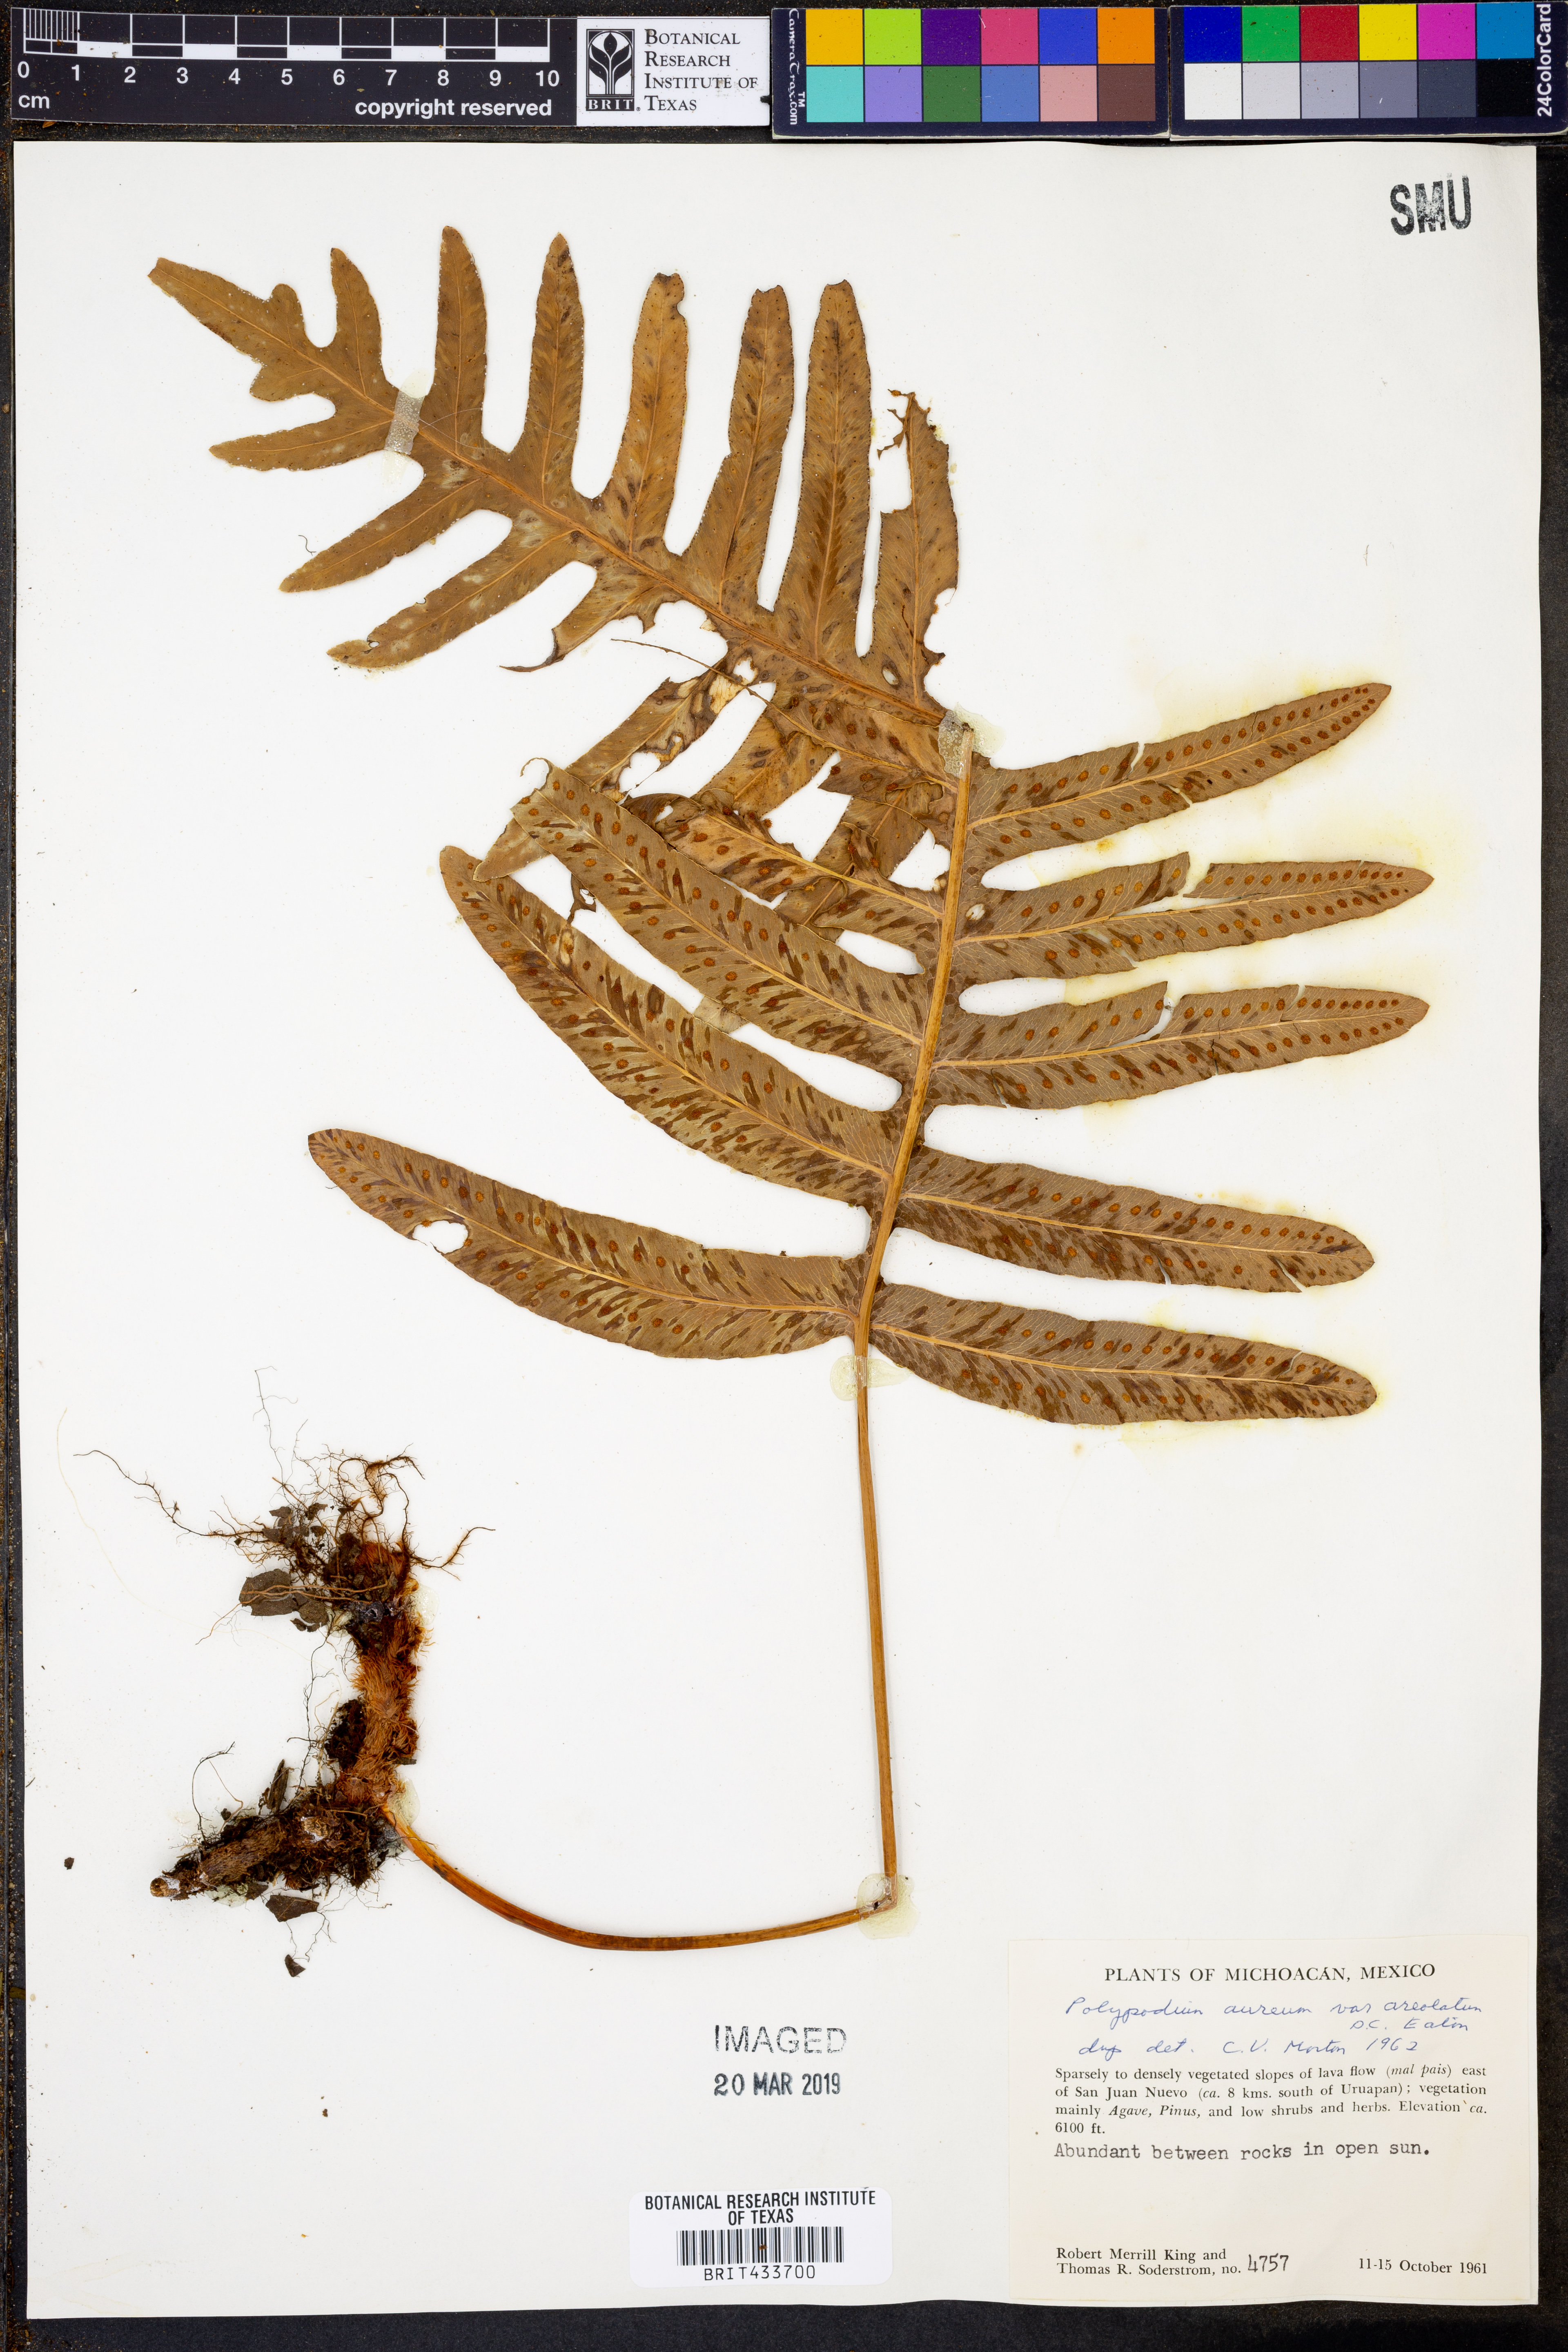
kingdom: Plantae
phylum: Tracheophyta
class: Polypodiopsida
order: Polypodiales
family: Polypodiaceae
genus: Phlebodium
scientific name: Phlebodium pseudoaureum
